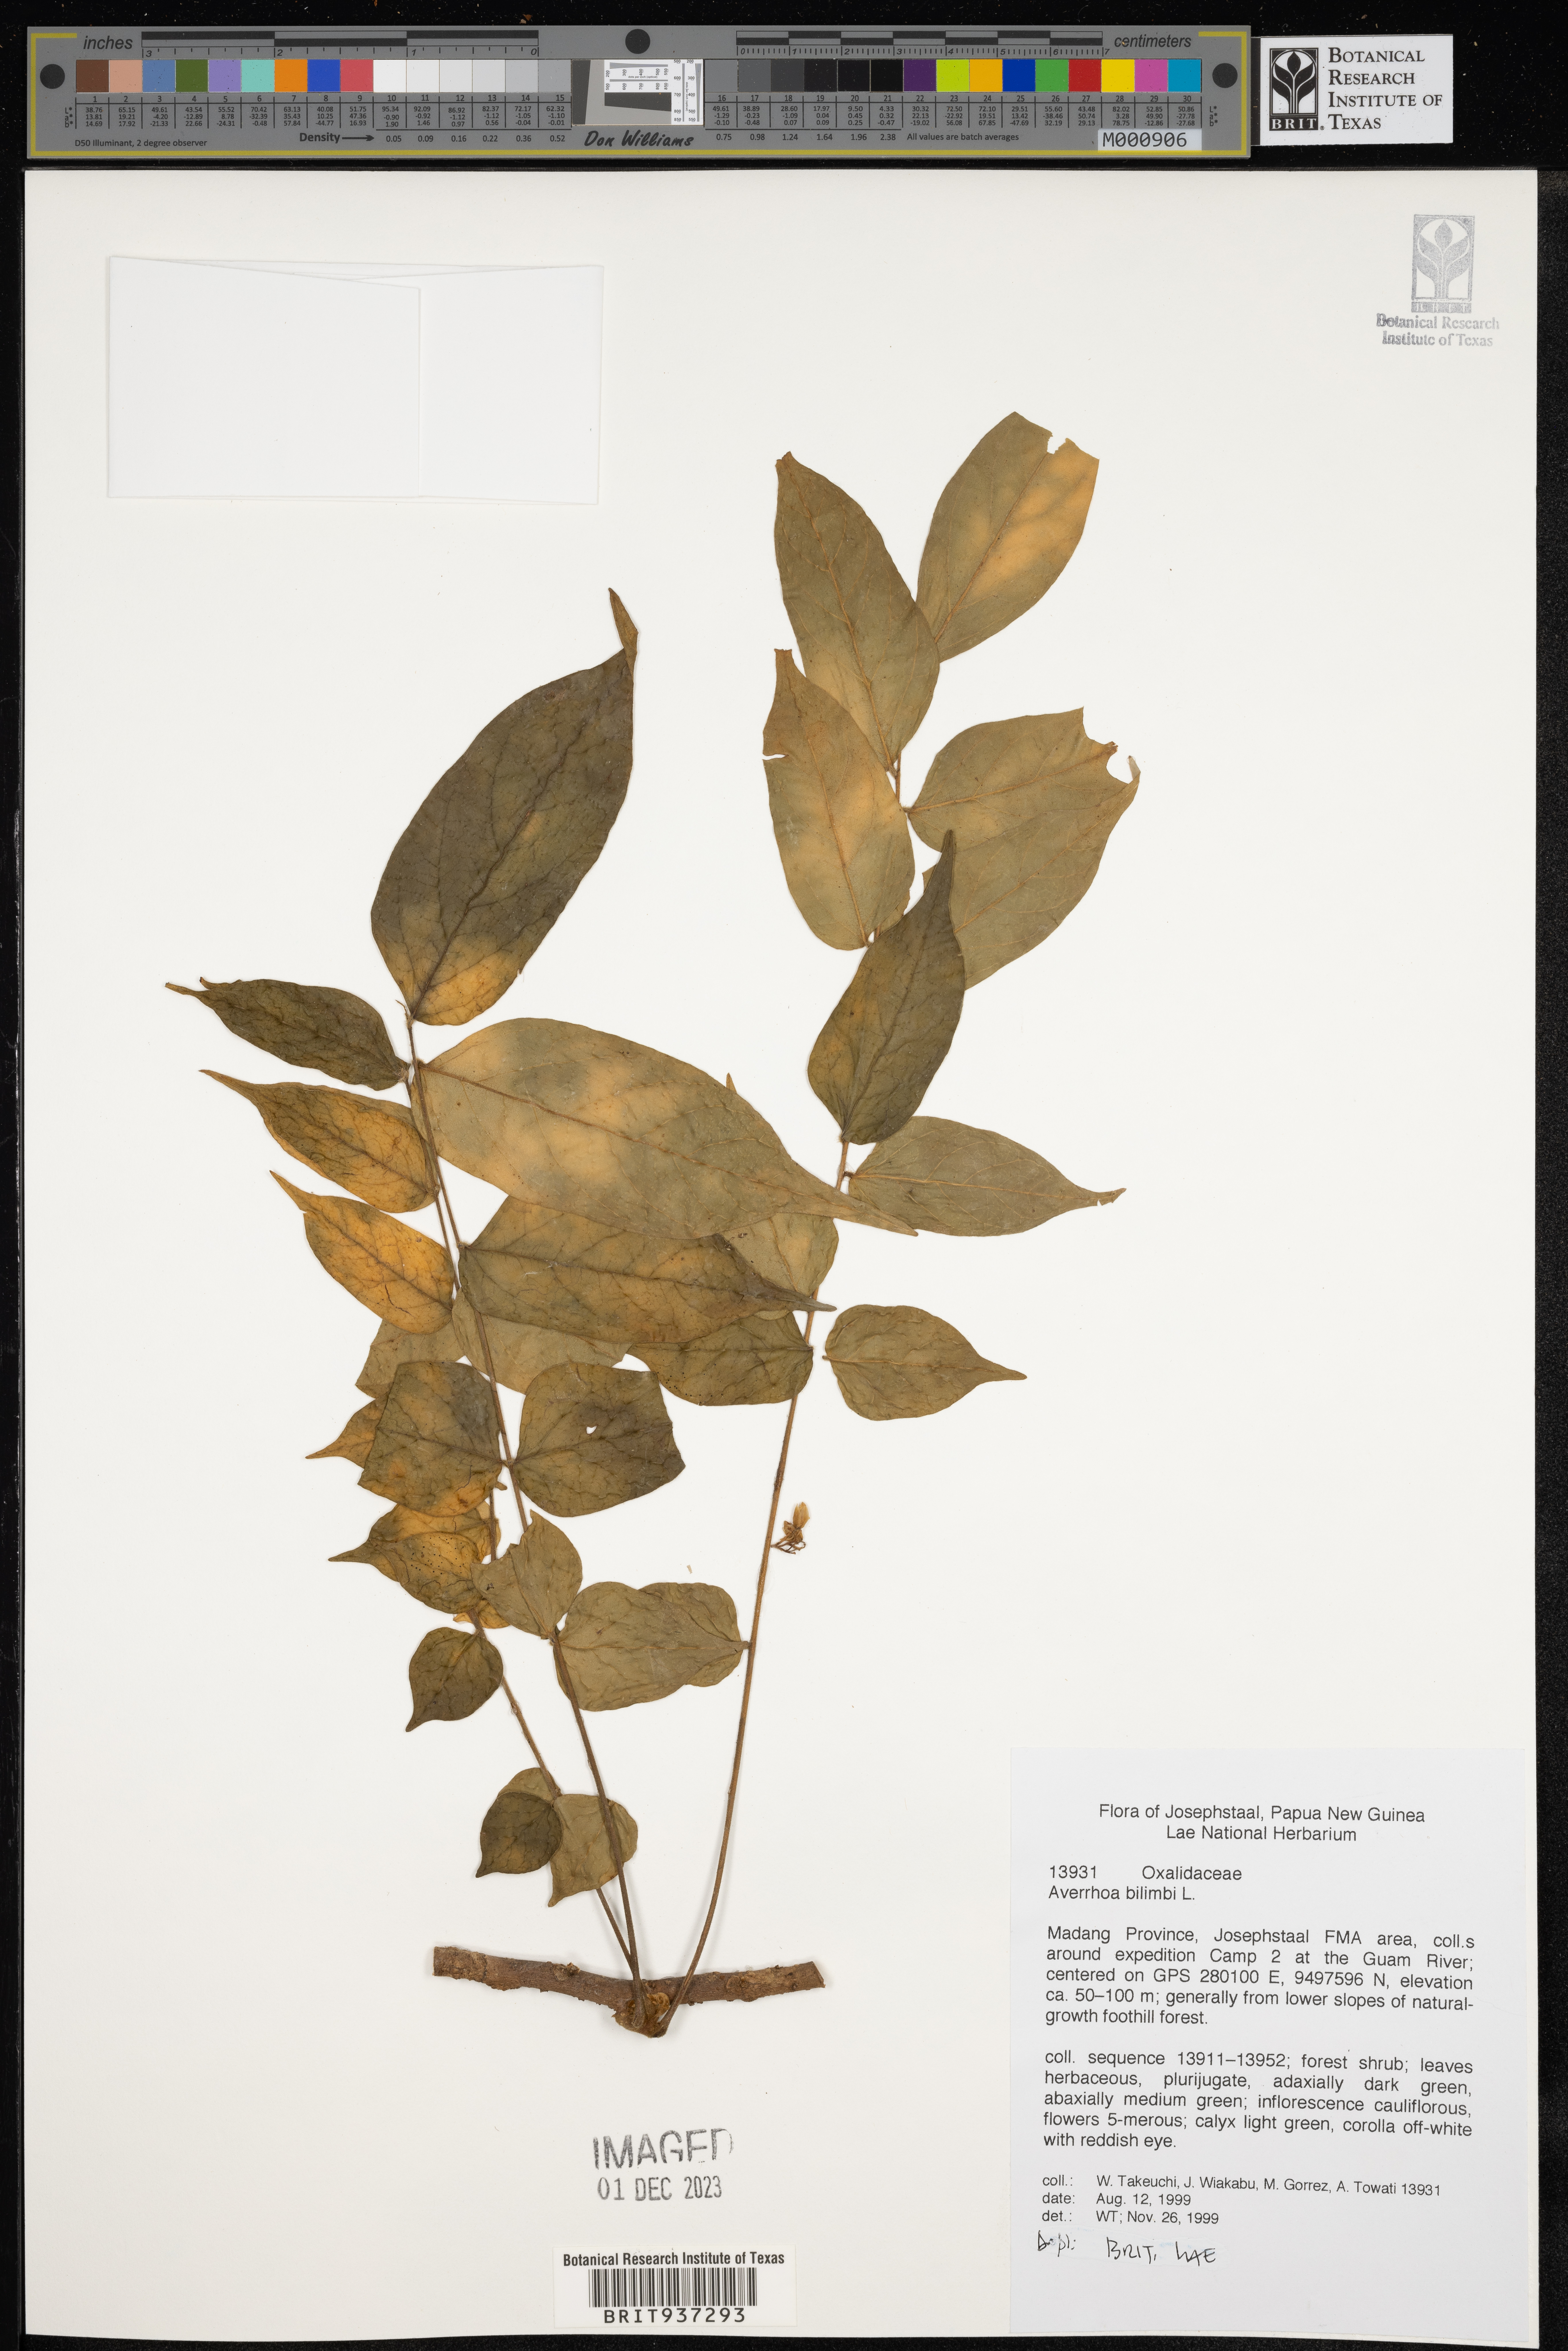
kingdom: Plantae
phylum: Tracheophyta
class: Magnoliopsida
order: Oxalidales
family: Oxalidaceae
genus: Averrhoa
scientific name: Averrhoa
